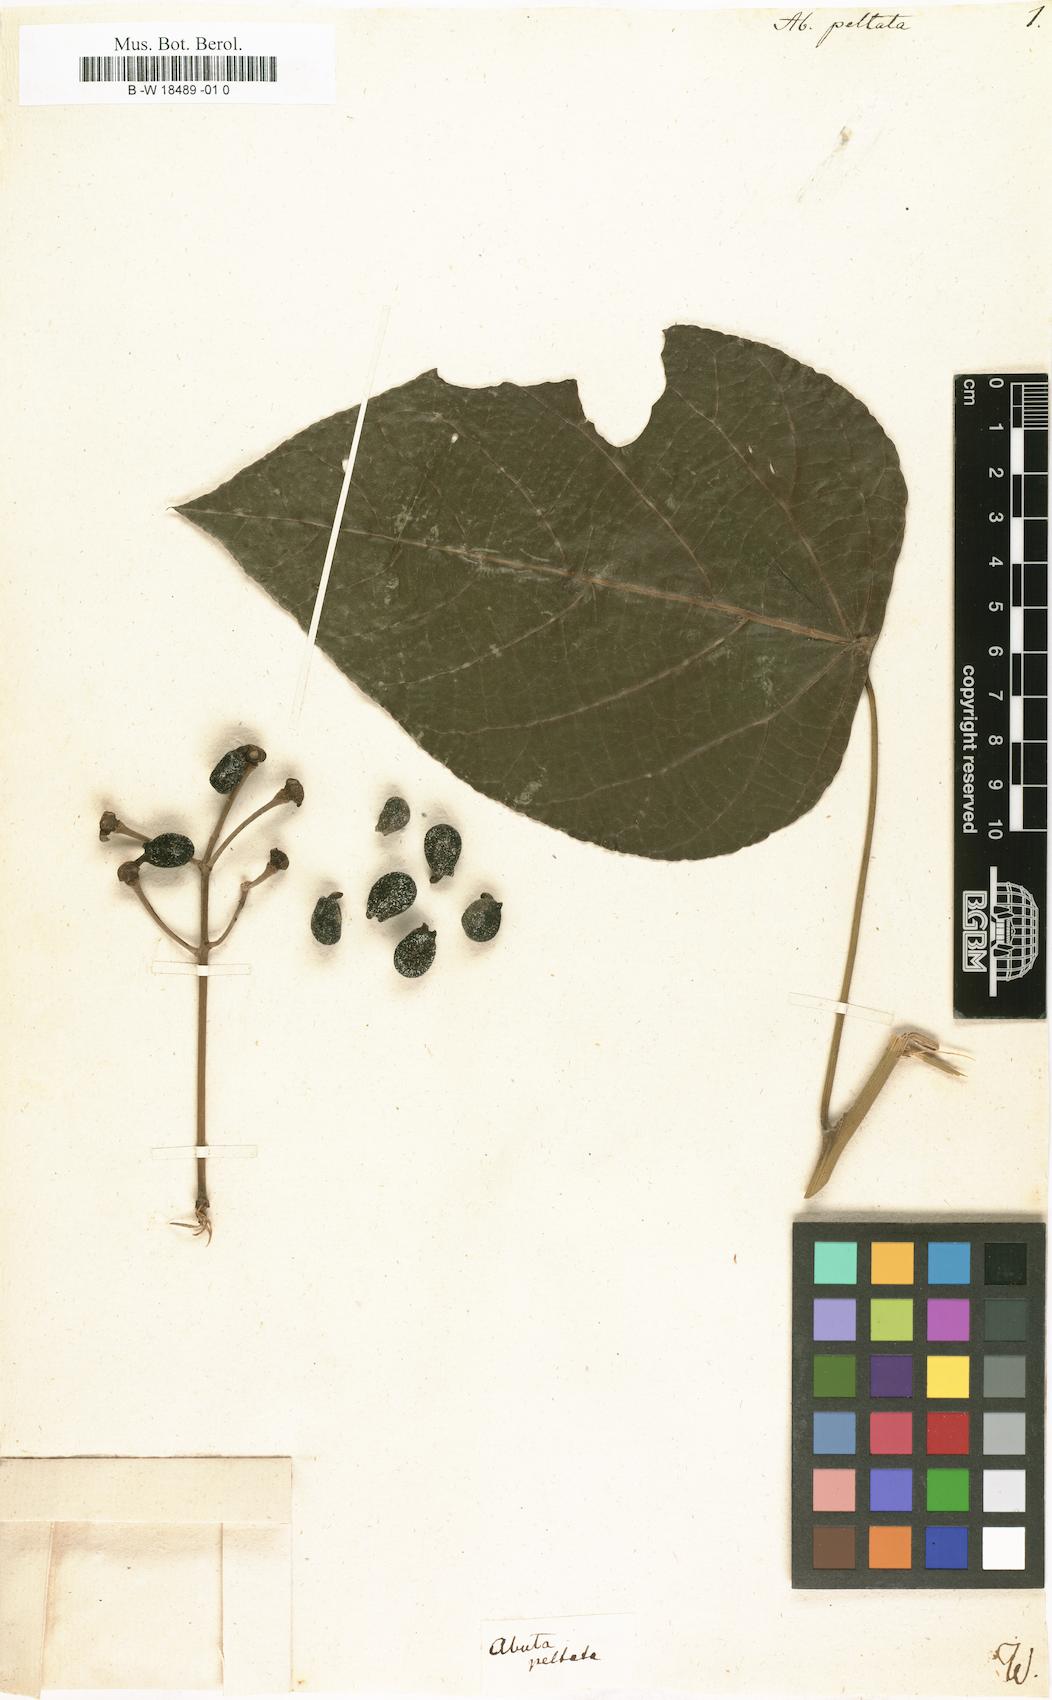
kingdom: Plantae
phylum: Tracheophyta
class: Magnoliopsida
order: Ranunculales
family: Menispermaceae
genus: Abuta
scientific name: Abuta
